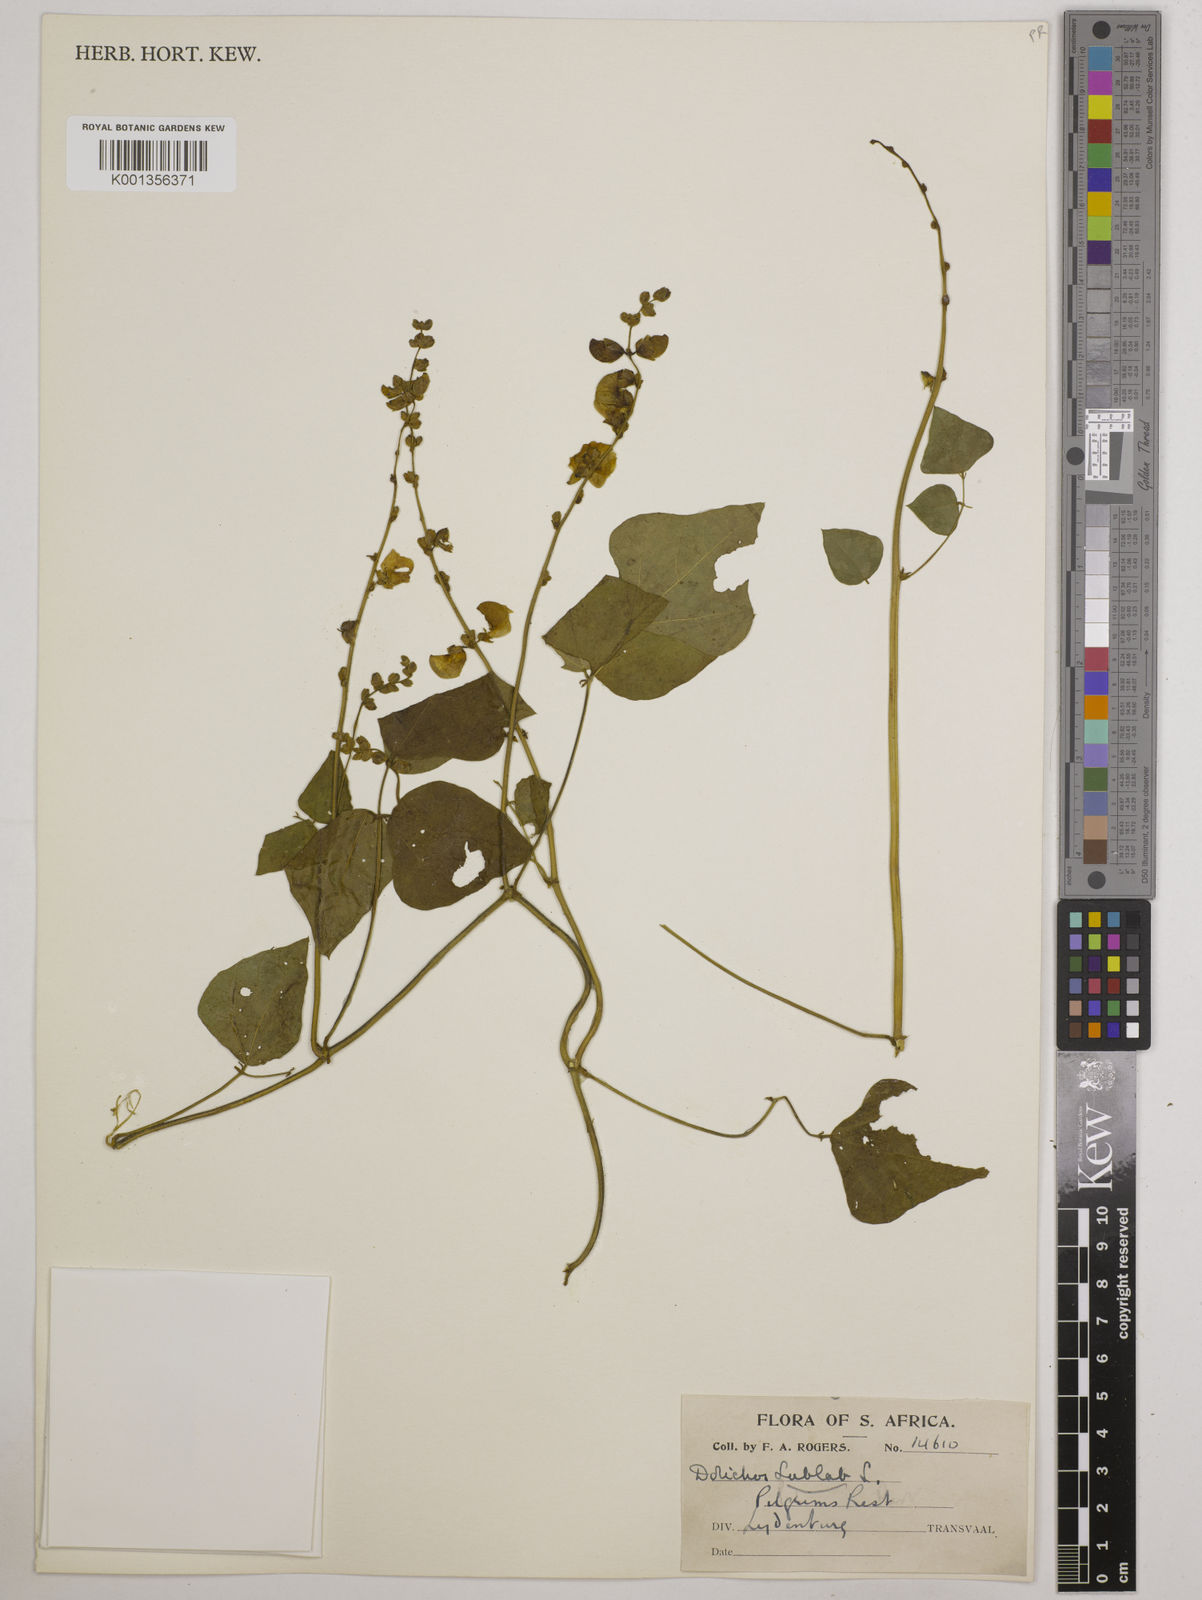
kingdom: Plantae
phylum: Tracheophyta
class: Magnoliopsida
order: Fabales
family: Fabaceae
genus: Lablab
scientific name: Lablab purpureus
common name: Lablab-bean
